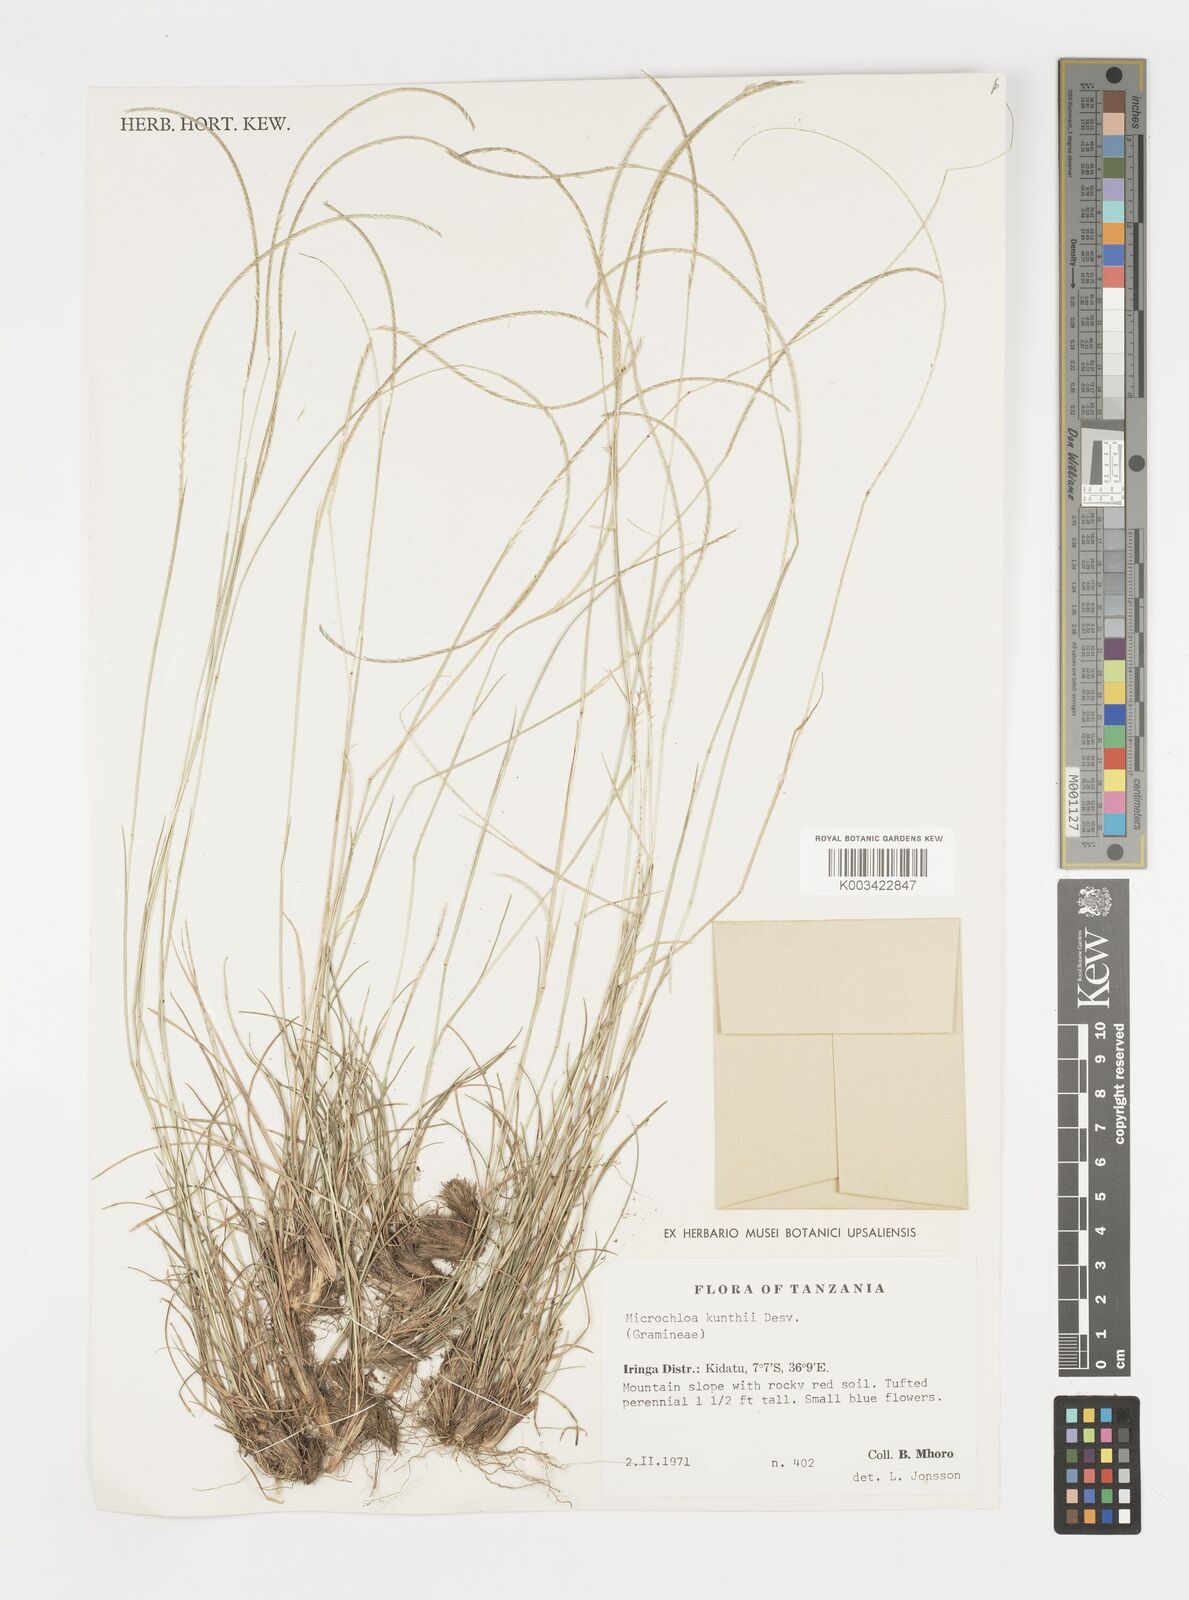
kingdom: Plantae
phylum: Tracheophyta
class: Liliopsida
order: Poales
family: Poaceae
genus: Microchloa
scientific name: Microchloa kunthii
